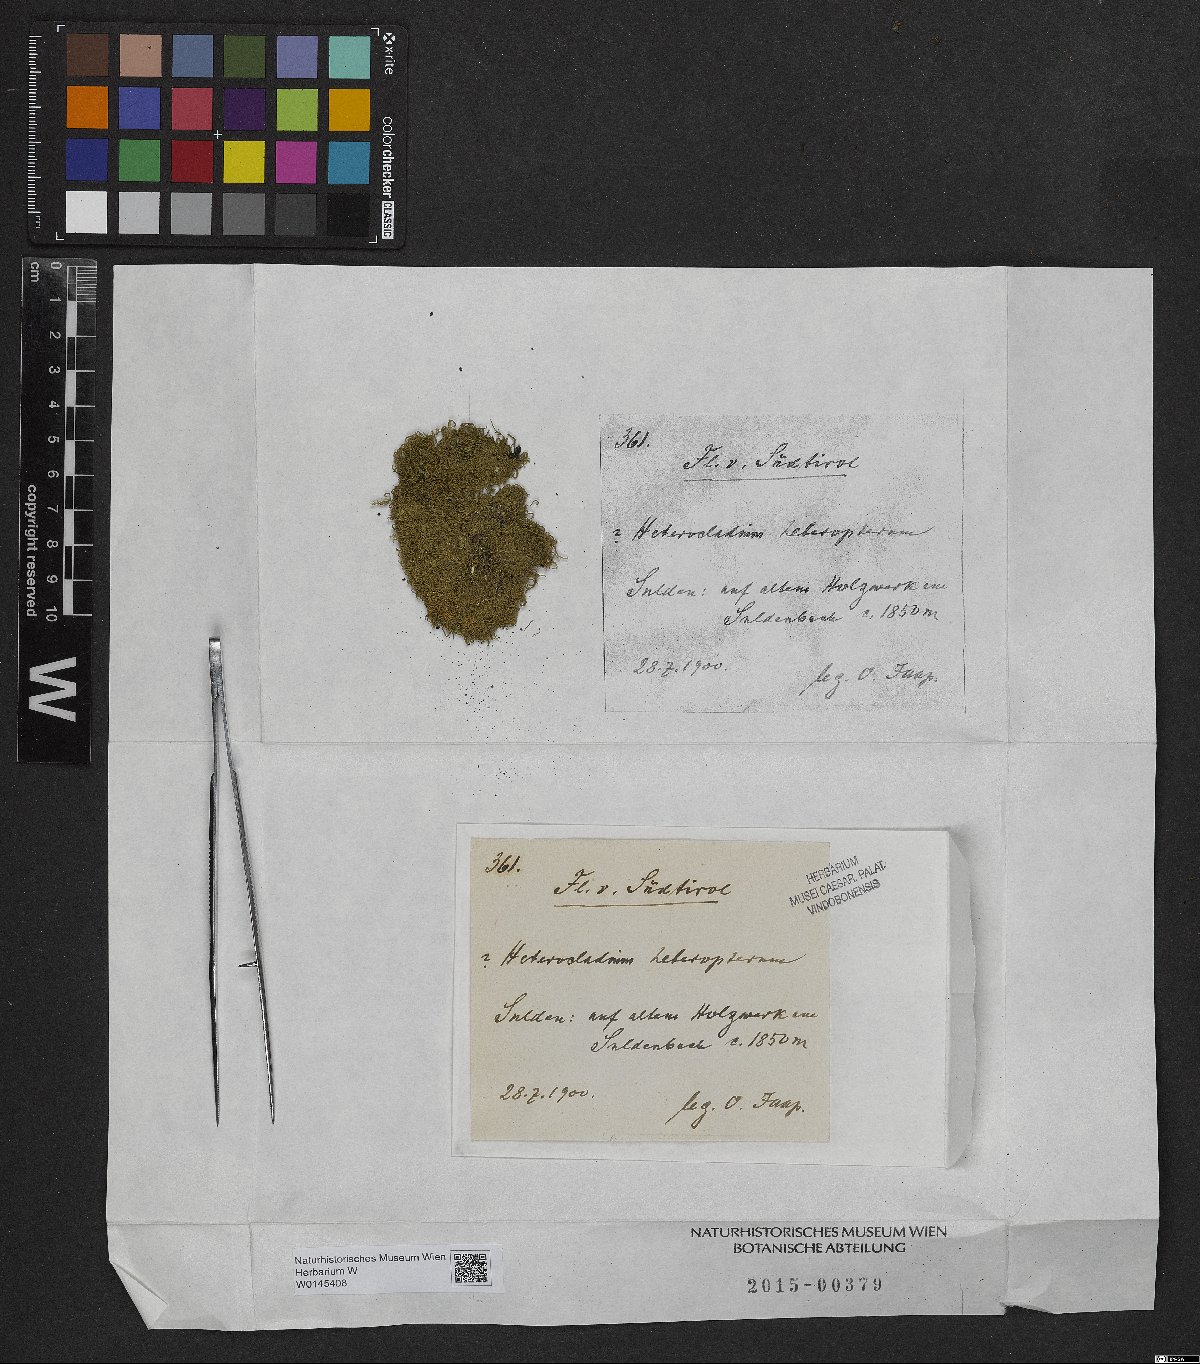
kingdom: Plantae
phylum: Bryophyta
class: Bryopsida
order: Hypnales
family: Lembophyllaceae
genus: Heterocladium
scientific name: Heterocladium heteropterum
